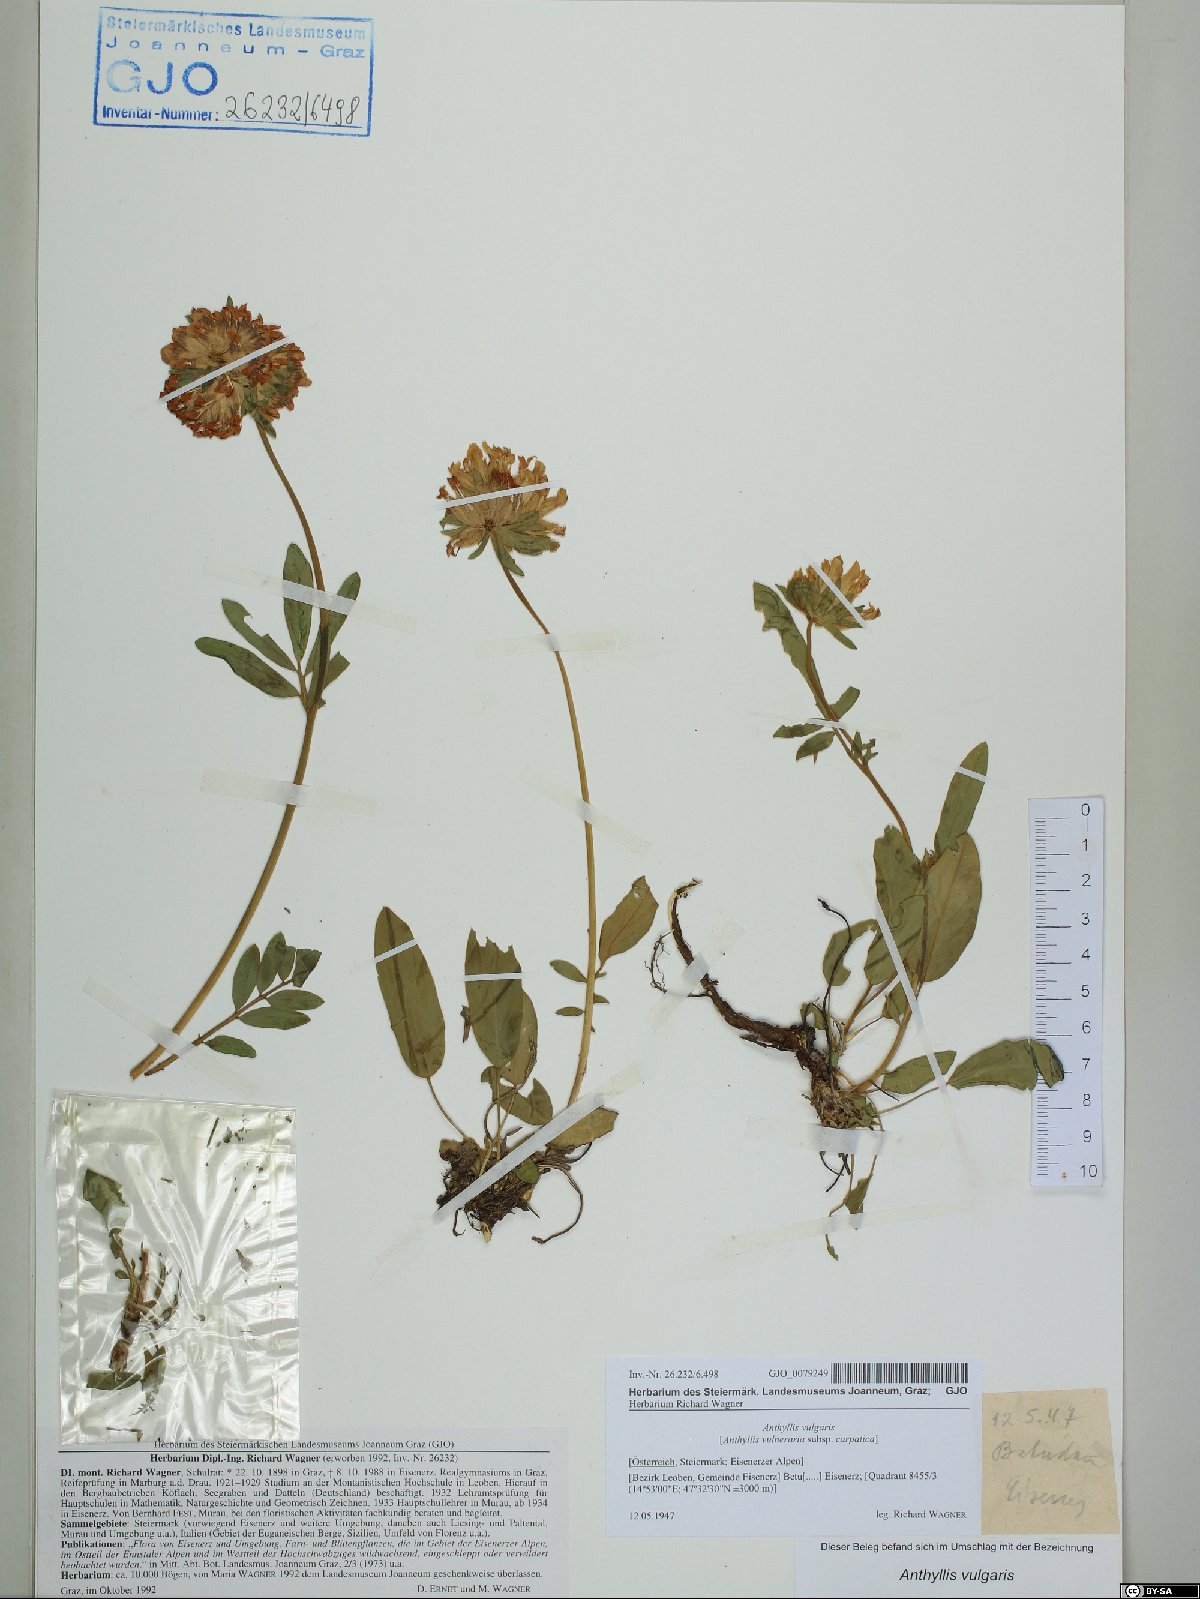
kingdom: Plantae
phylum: Tracheophyta
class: Magnoliopsida
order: Fabales
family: Fabaceae
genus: Anthyllis
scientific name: Anthyllis vulneraria
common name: Kidney vetch
